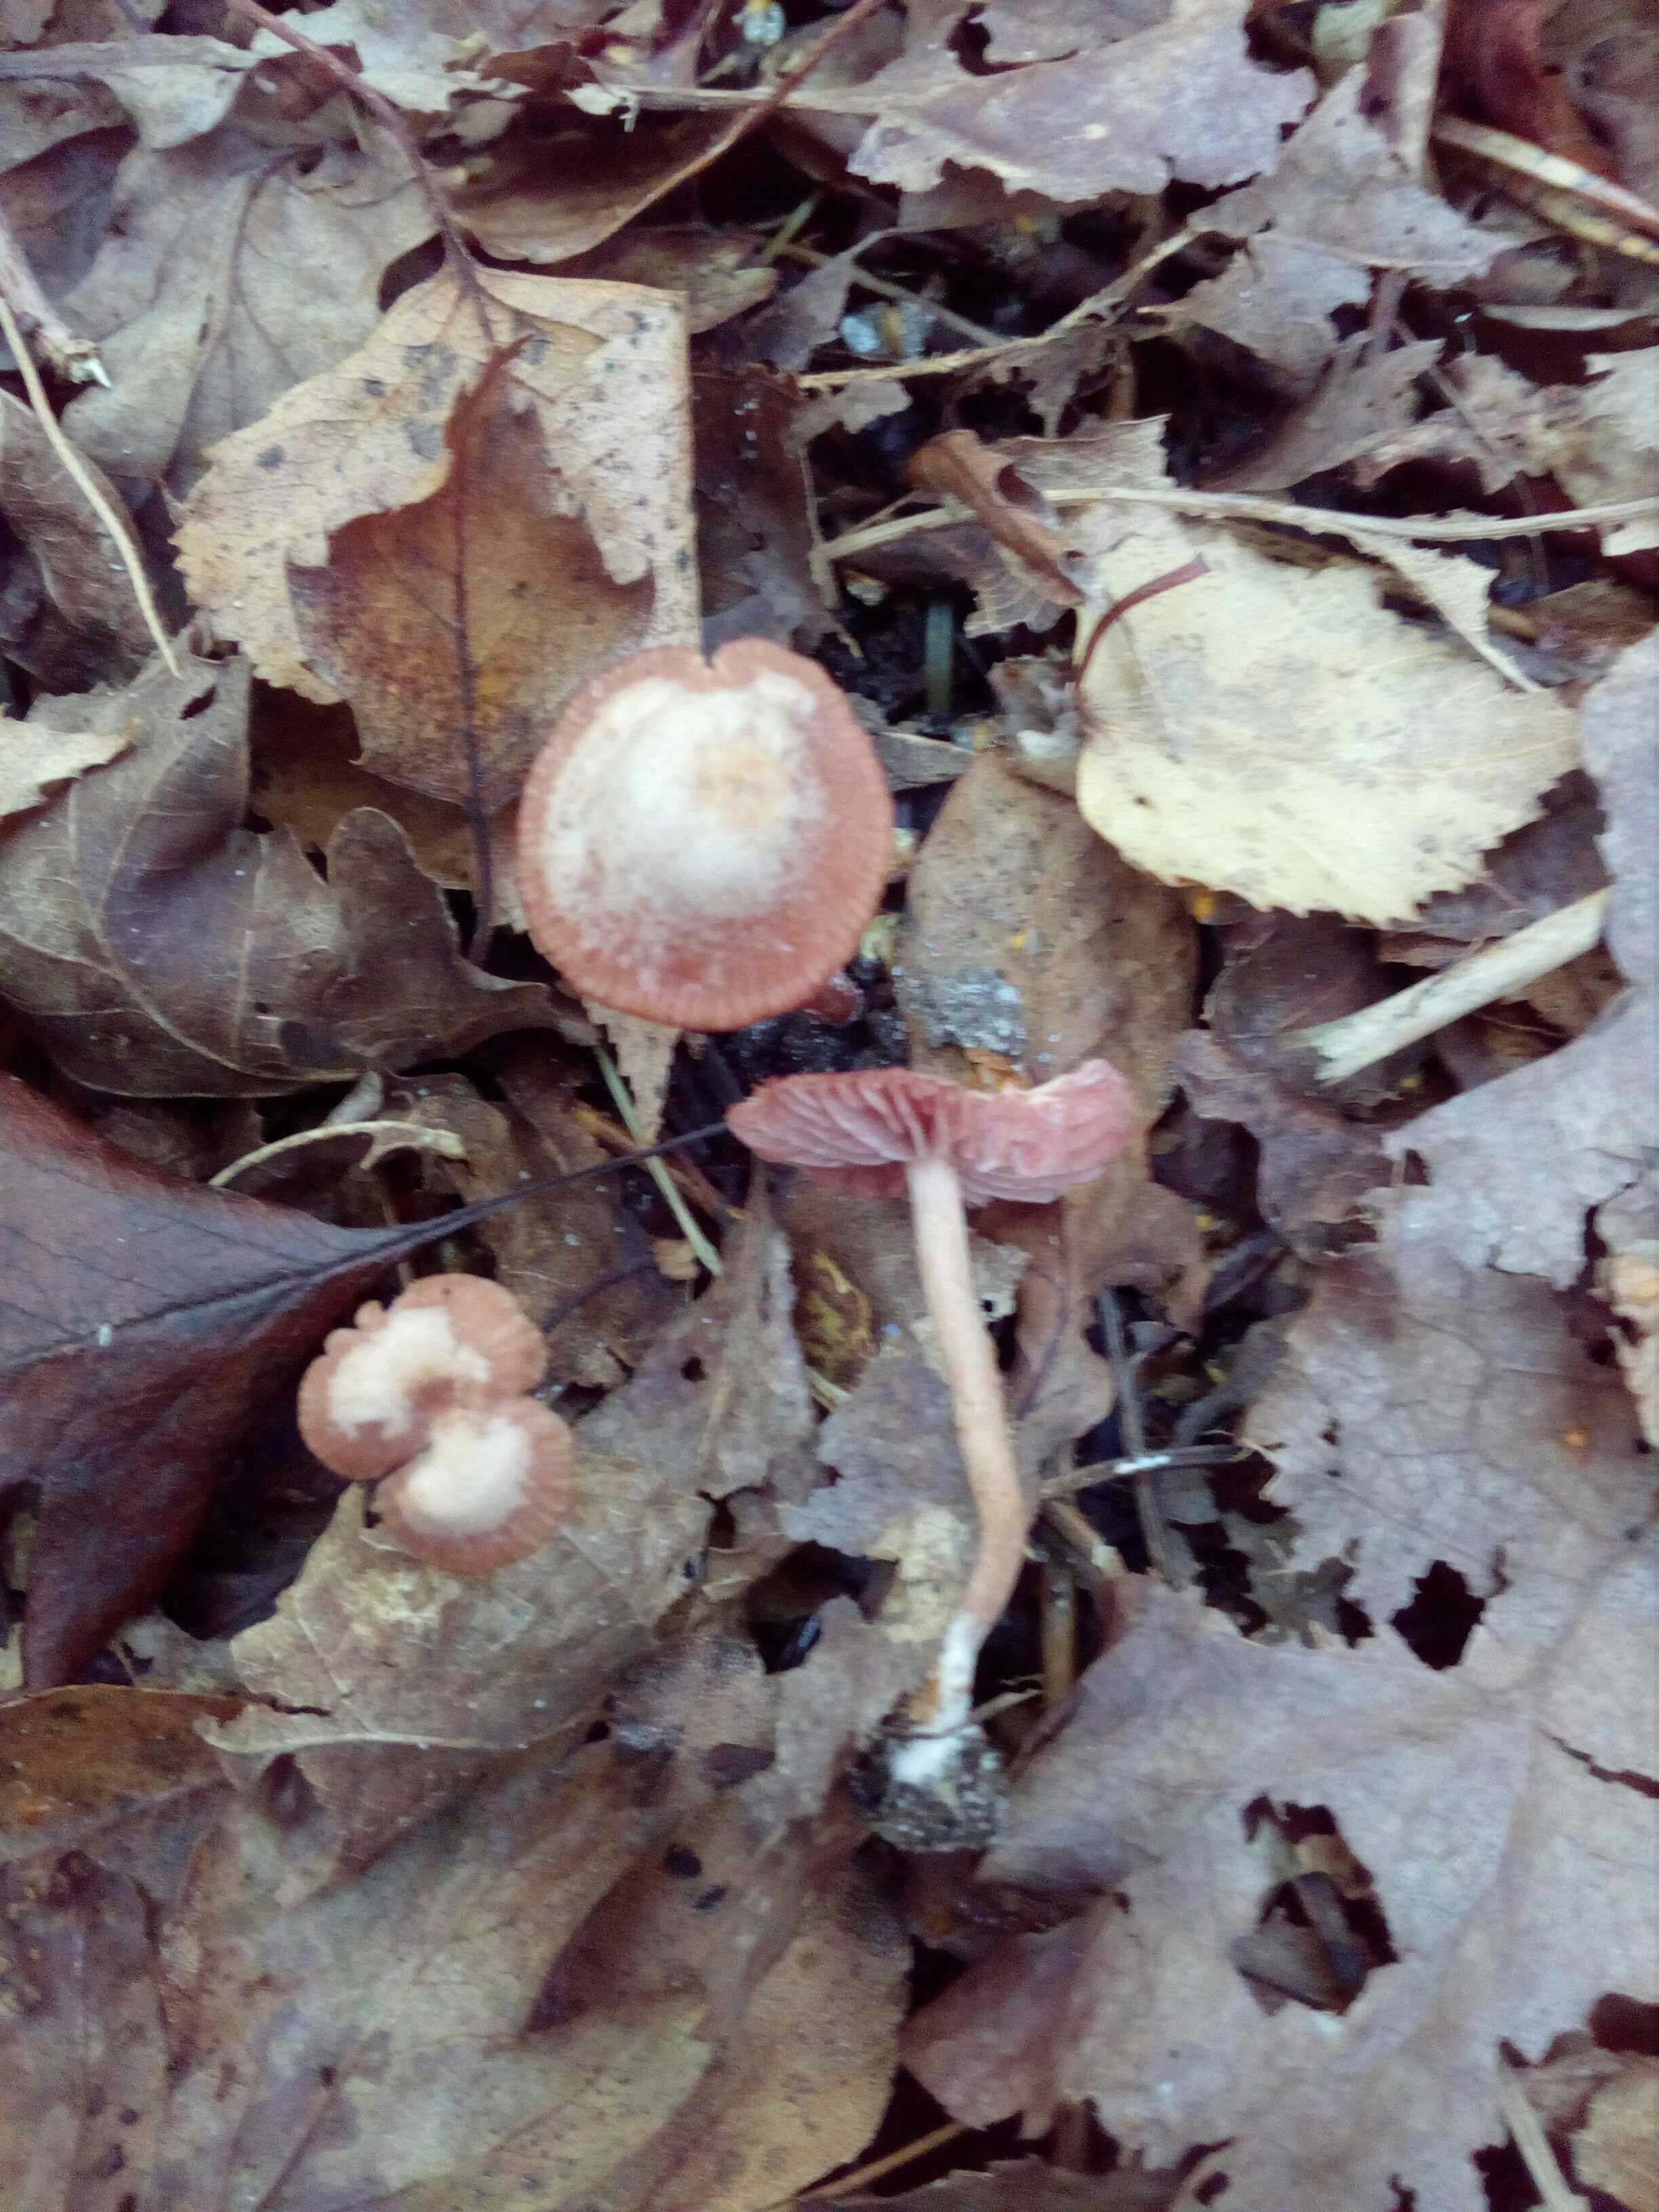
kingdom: Fungi
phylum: Basidiomycota
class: Agaricomycetes
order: Agaricales
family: Hydnangiaceae
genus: Laccaria
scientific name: Laccaria laccata
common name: rød ametysthat
